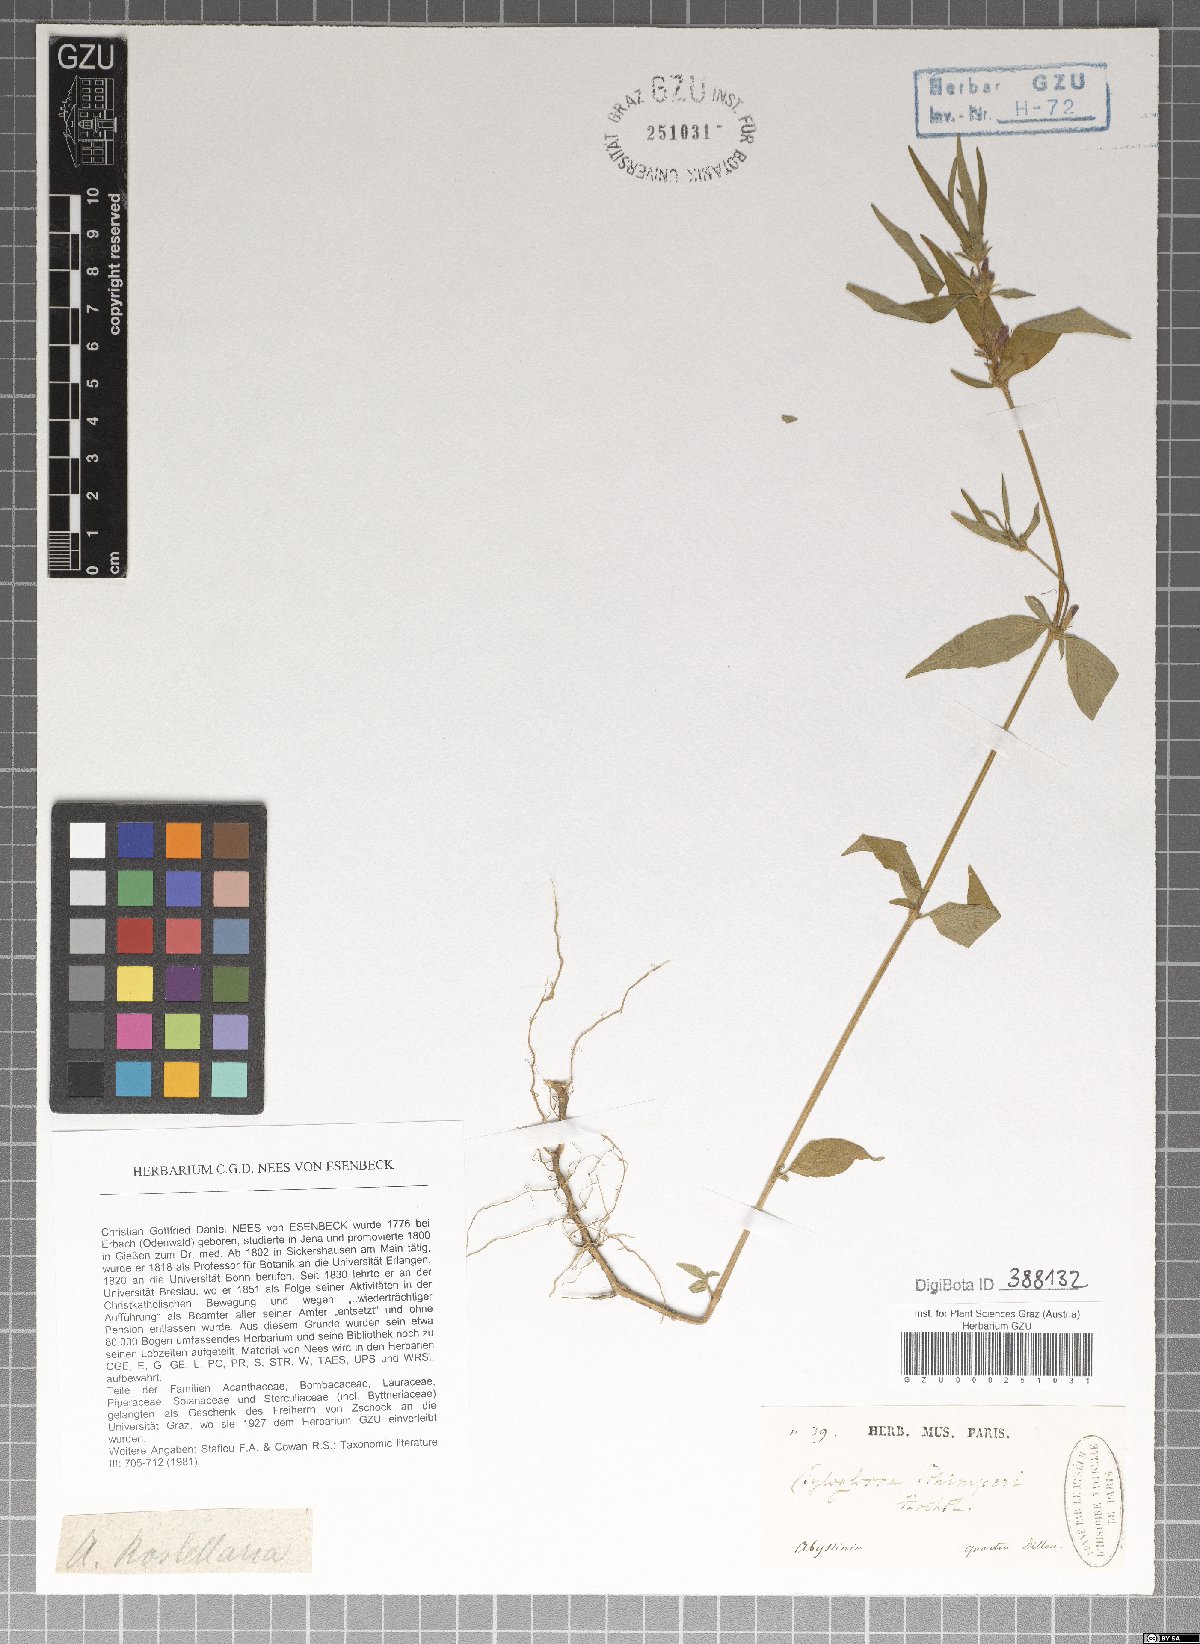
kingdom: Plantae
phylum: Tracheophyta
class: Magnoliopsida
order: Lamiales
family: Acanthaceae
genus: Justicia
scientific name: Justicia ladanoides
